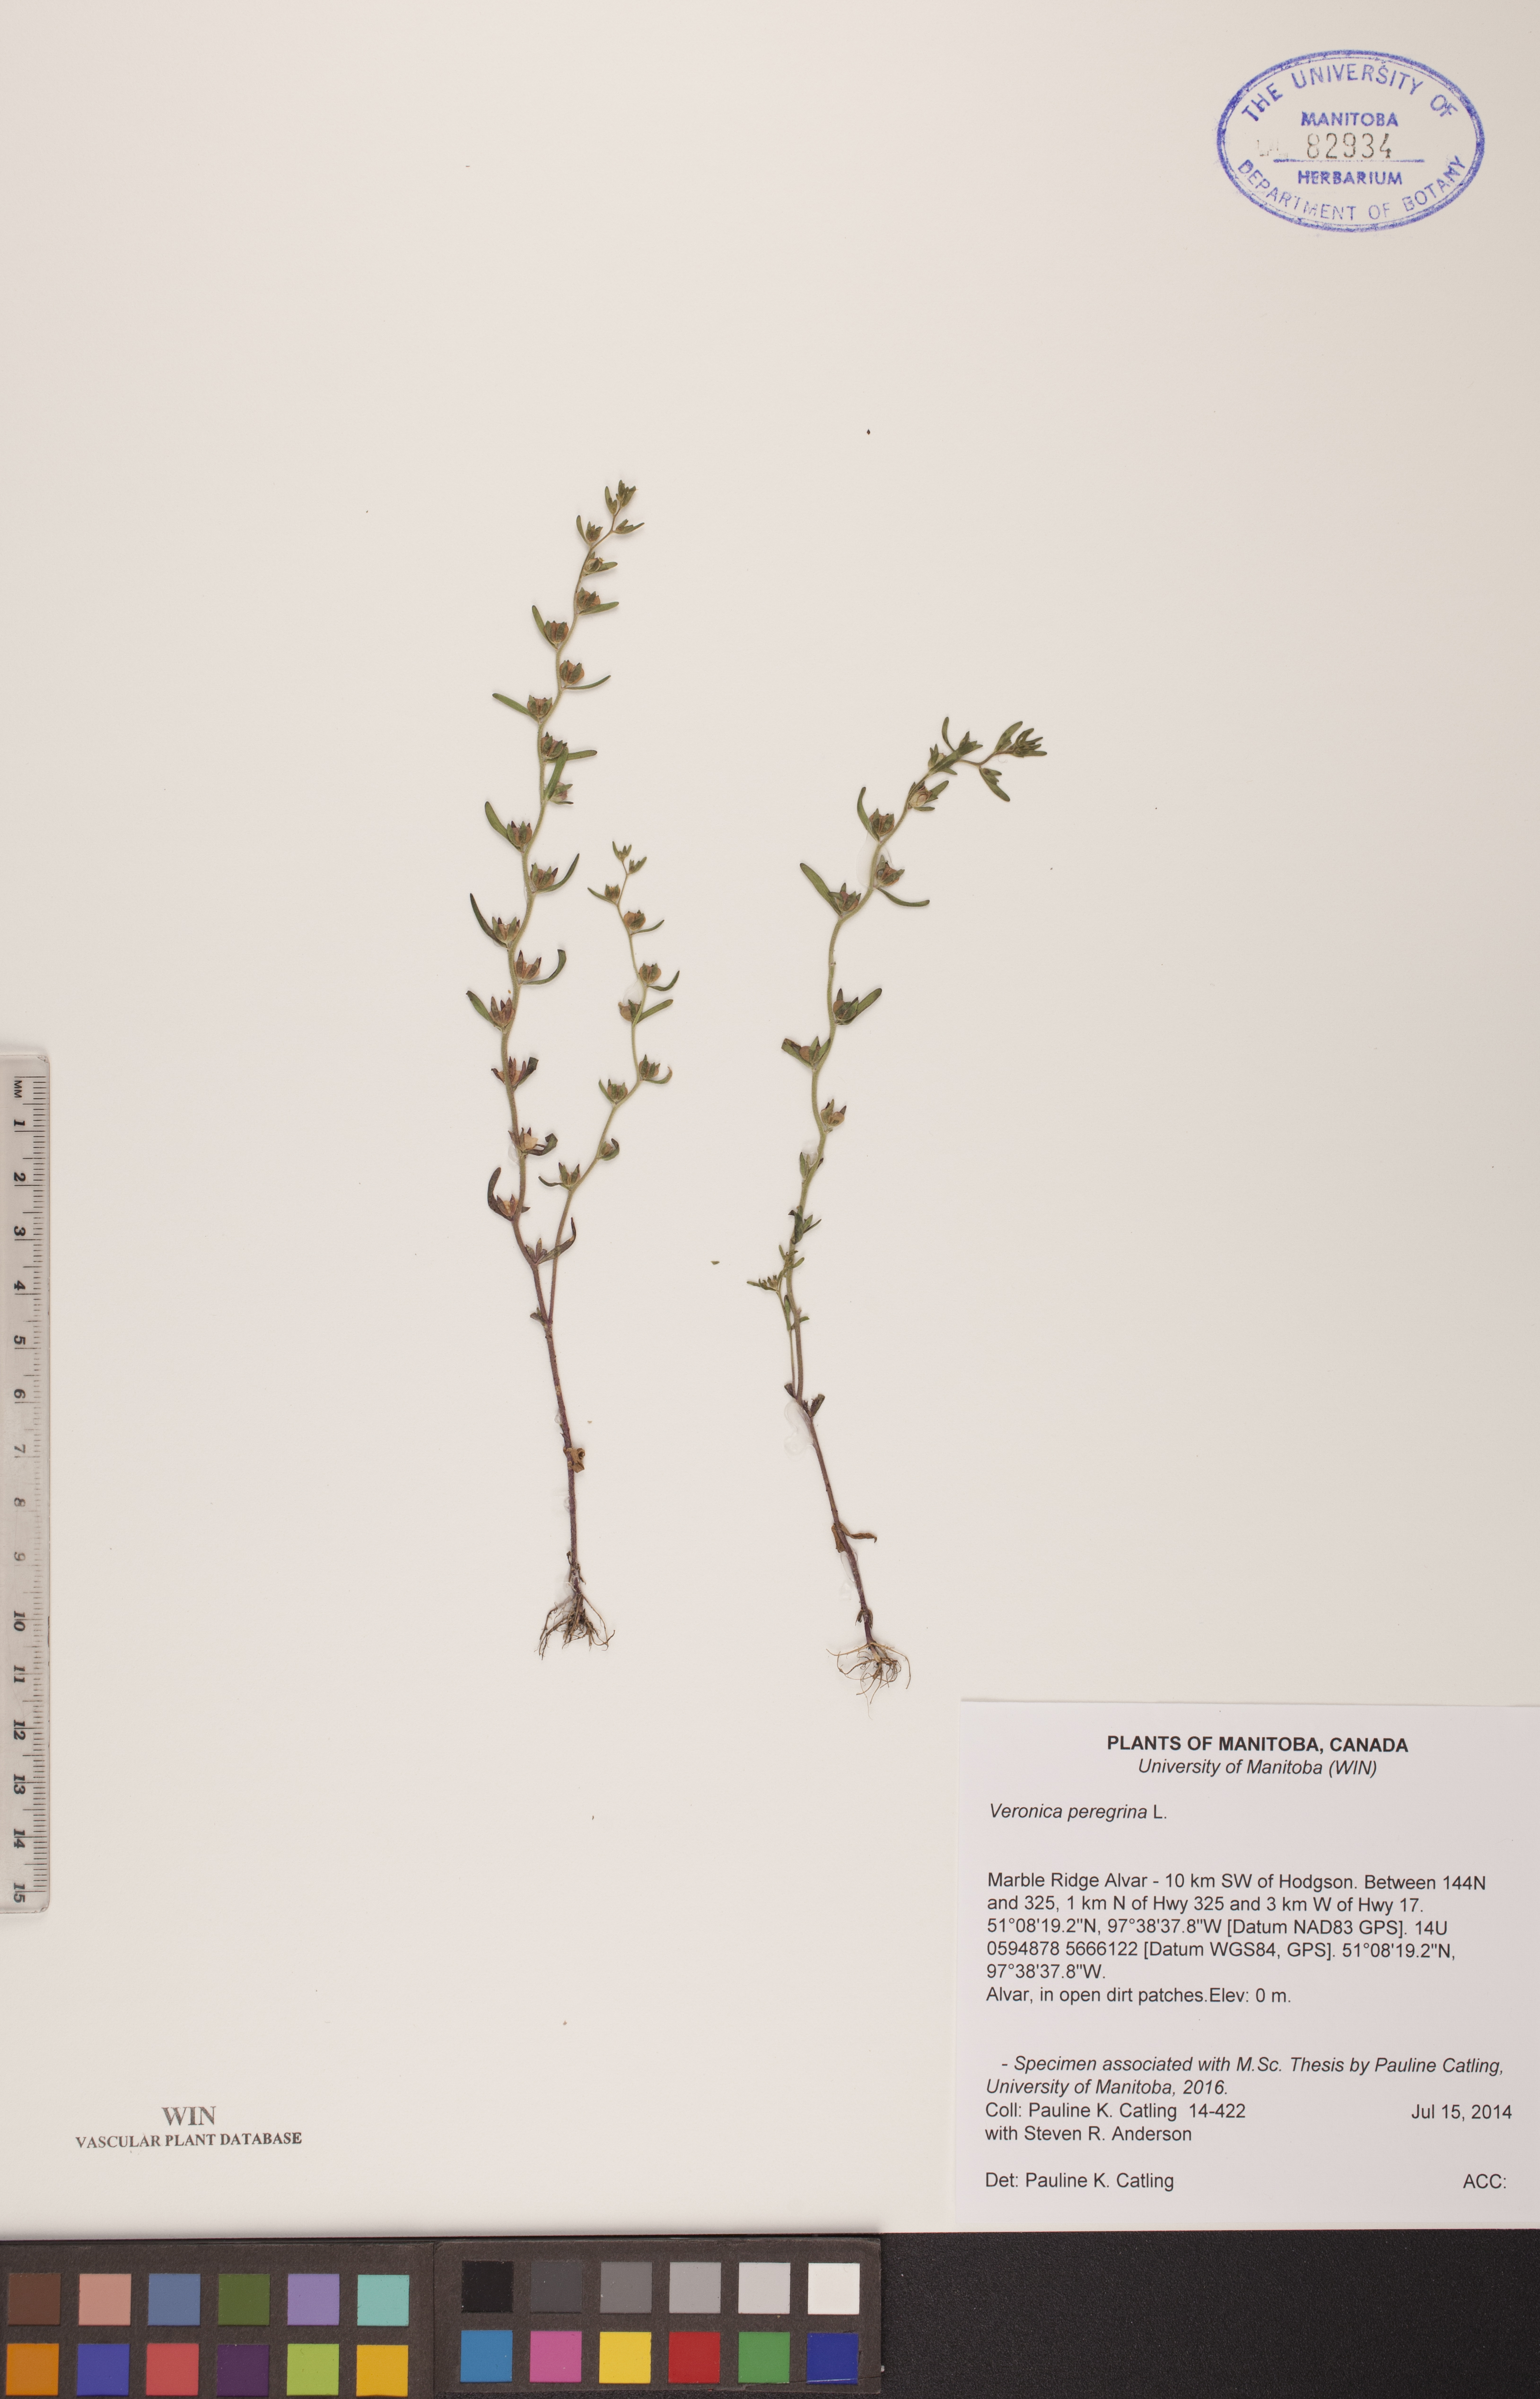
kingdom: Plantae
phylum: Tracheophyta
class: Magnoliopsida
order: Lamiales
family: Plantaginaceae
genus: Veronica
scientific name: Veronica peregrina
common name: Neckweed
